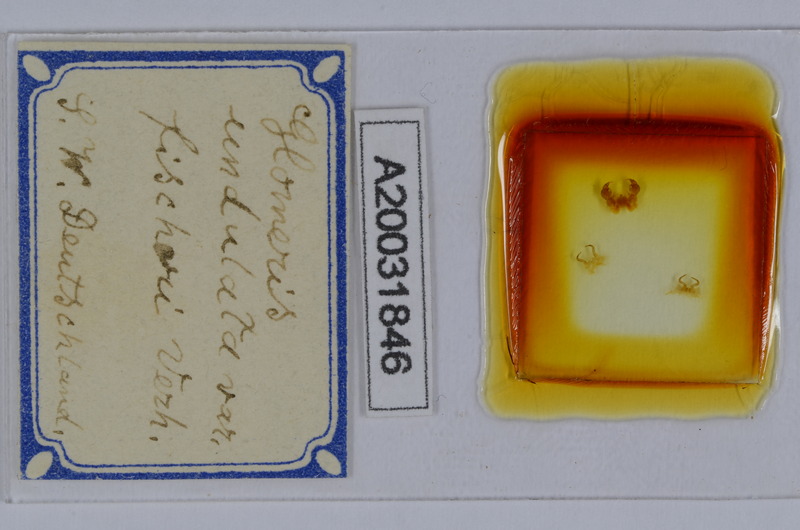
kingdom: Animalia
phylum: Arthropoda
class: Diplopoda
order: Glomerida
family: Glomeridae
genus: Glomeris
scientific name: Glomeris klugii
